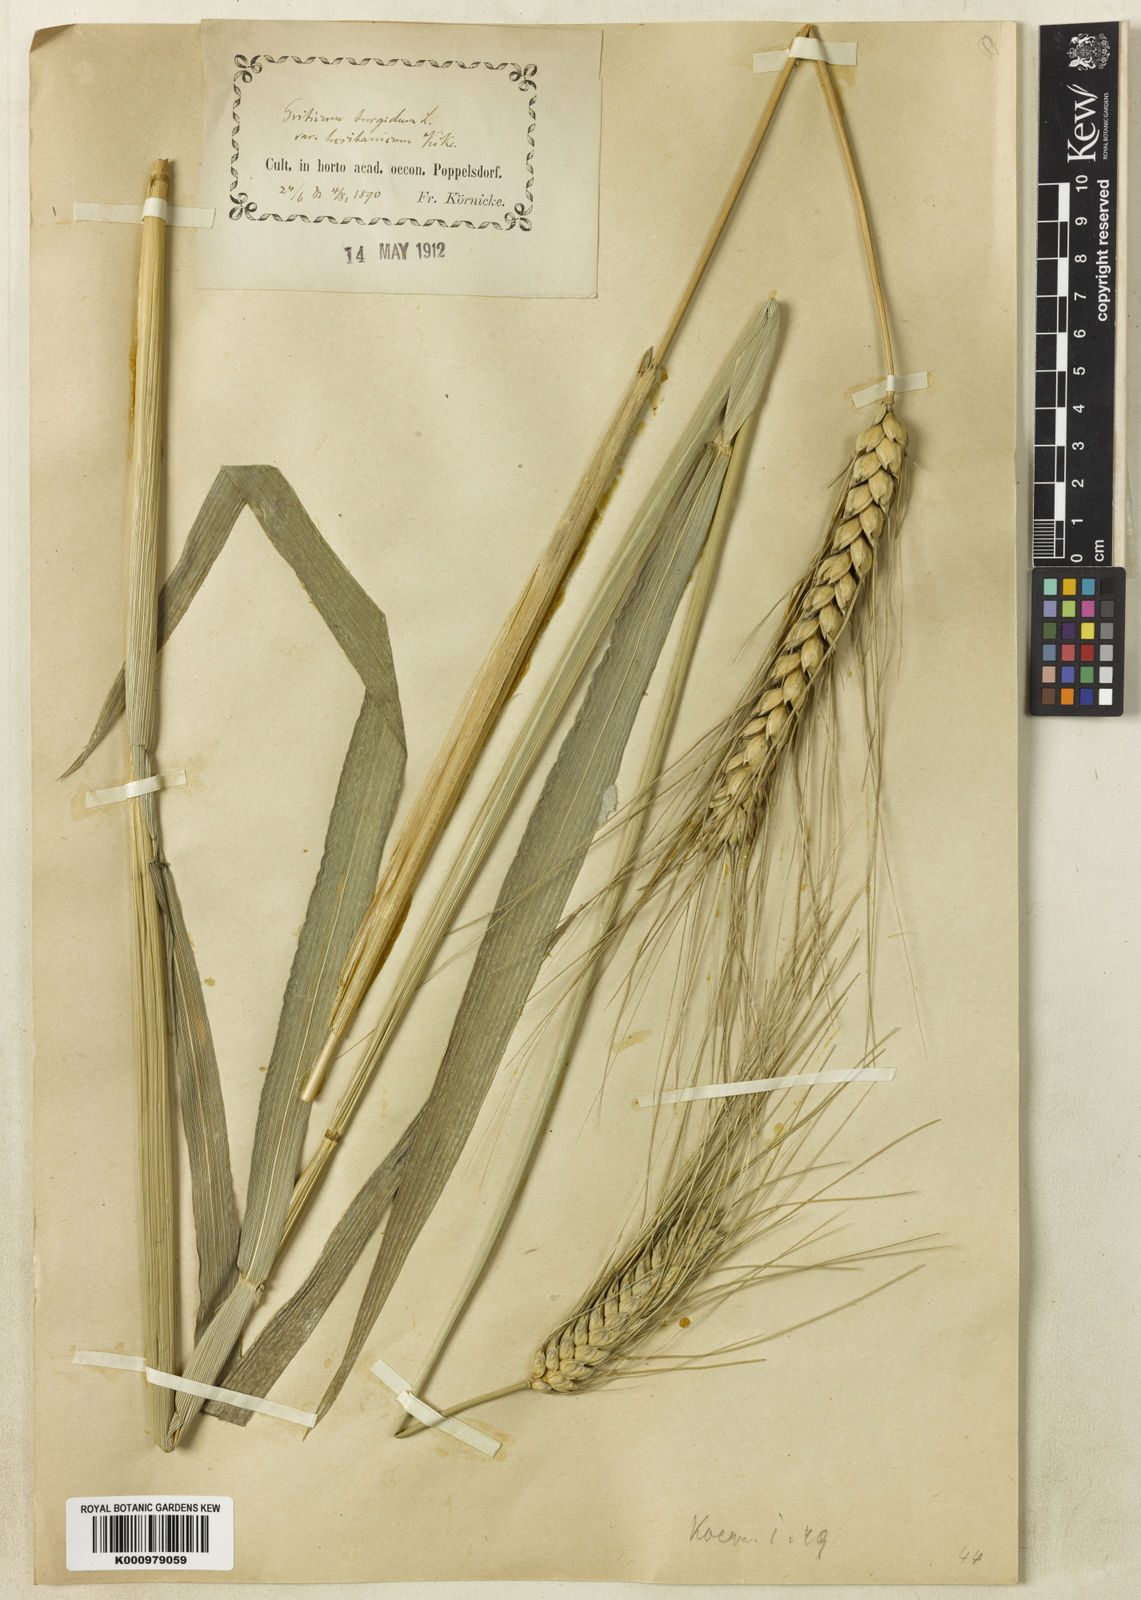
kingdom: Plantae
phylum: Tracheophyta
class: Liliopsida
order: Poales
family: Poaceae
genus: Triticum
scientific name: Triticum turgidum
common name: Rivet wheat
